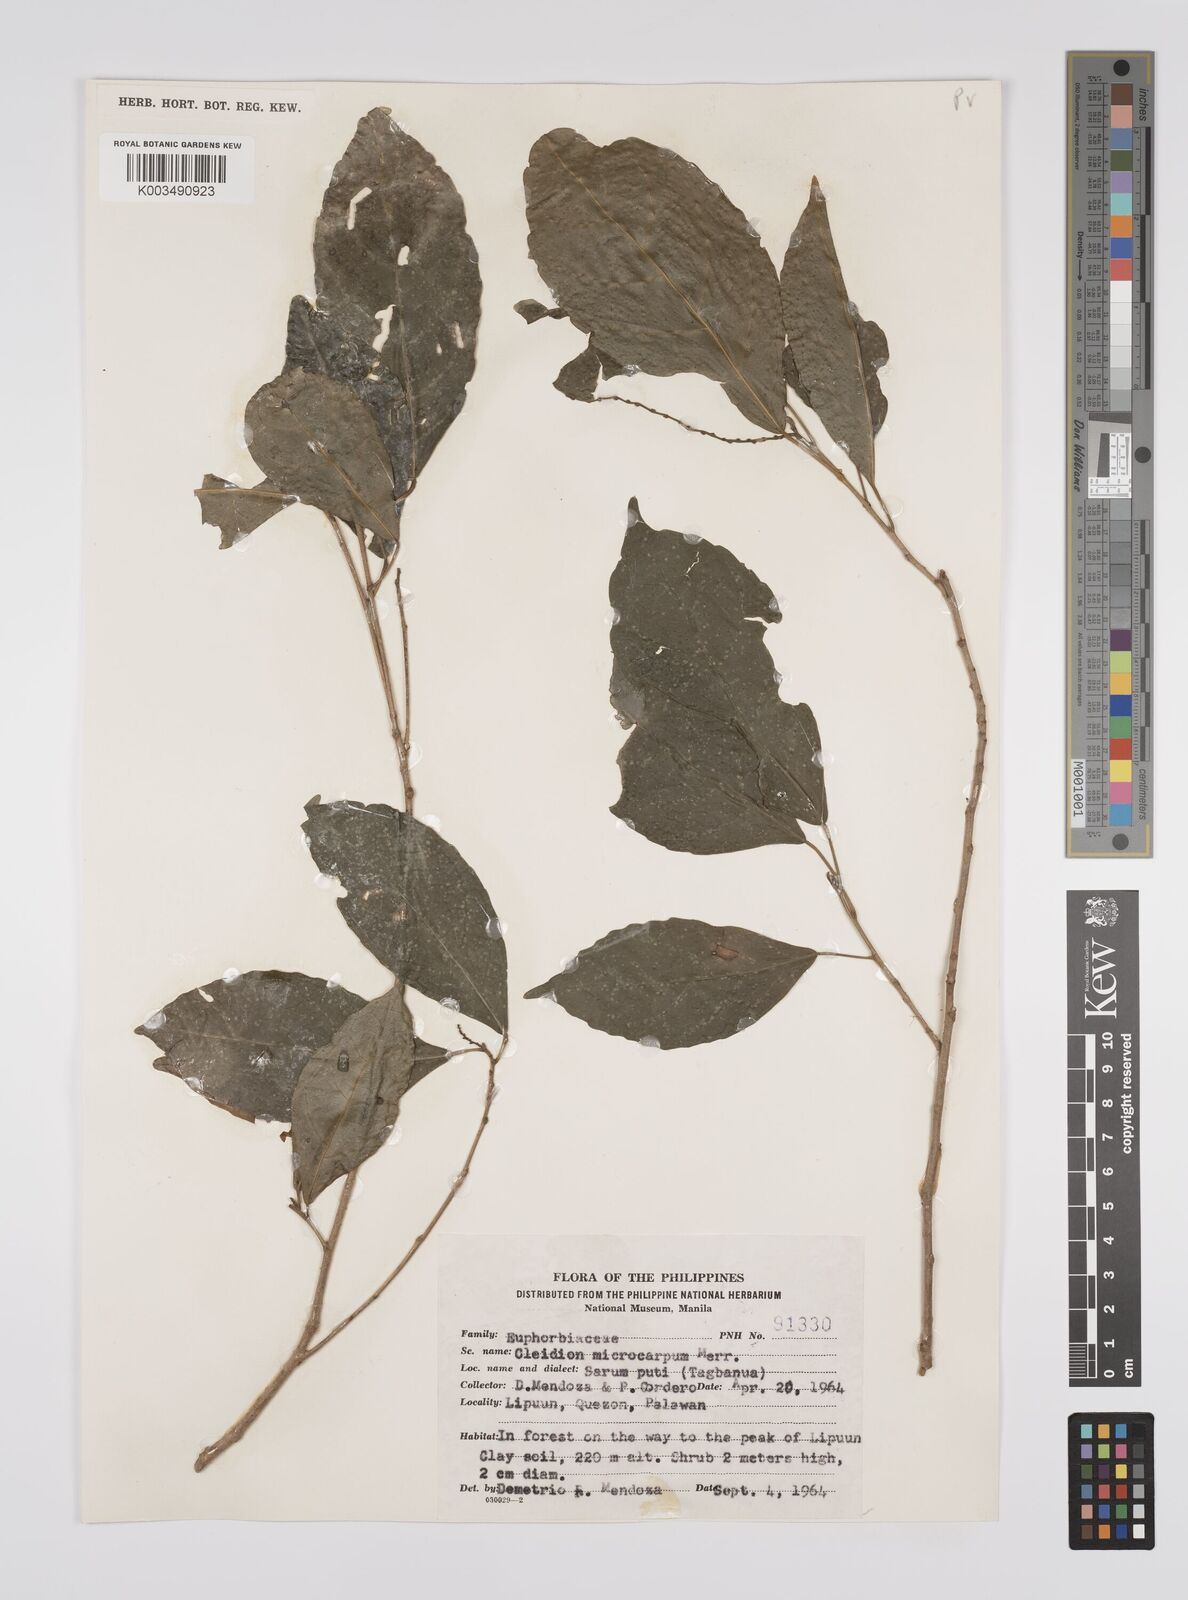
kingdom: Plantae
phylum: Tracheophyta
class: Magnoliopsida
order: Malpighiales
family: Euphorbiaceae
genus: Cleidion
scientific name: Cleidion microcarpum
